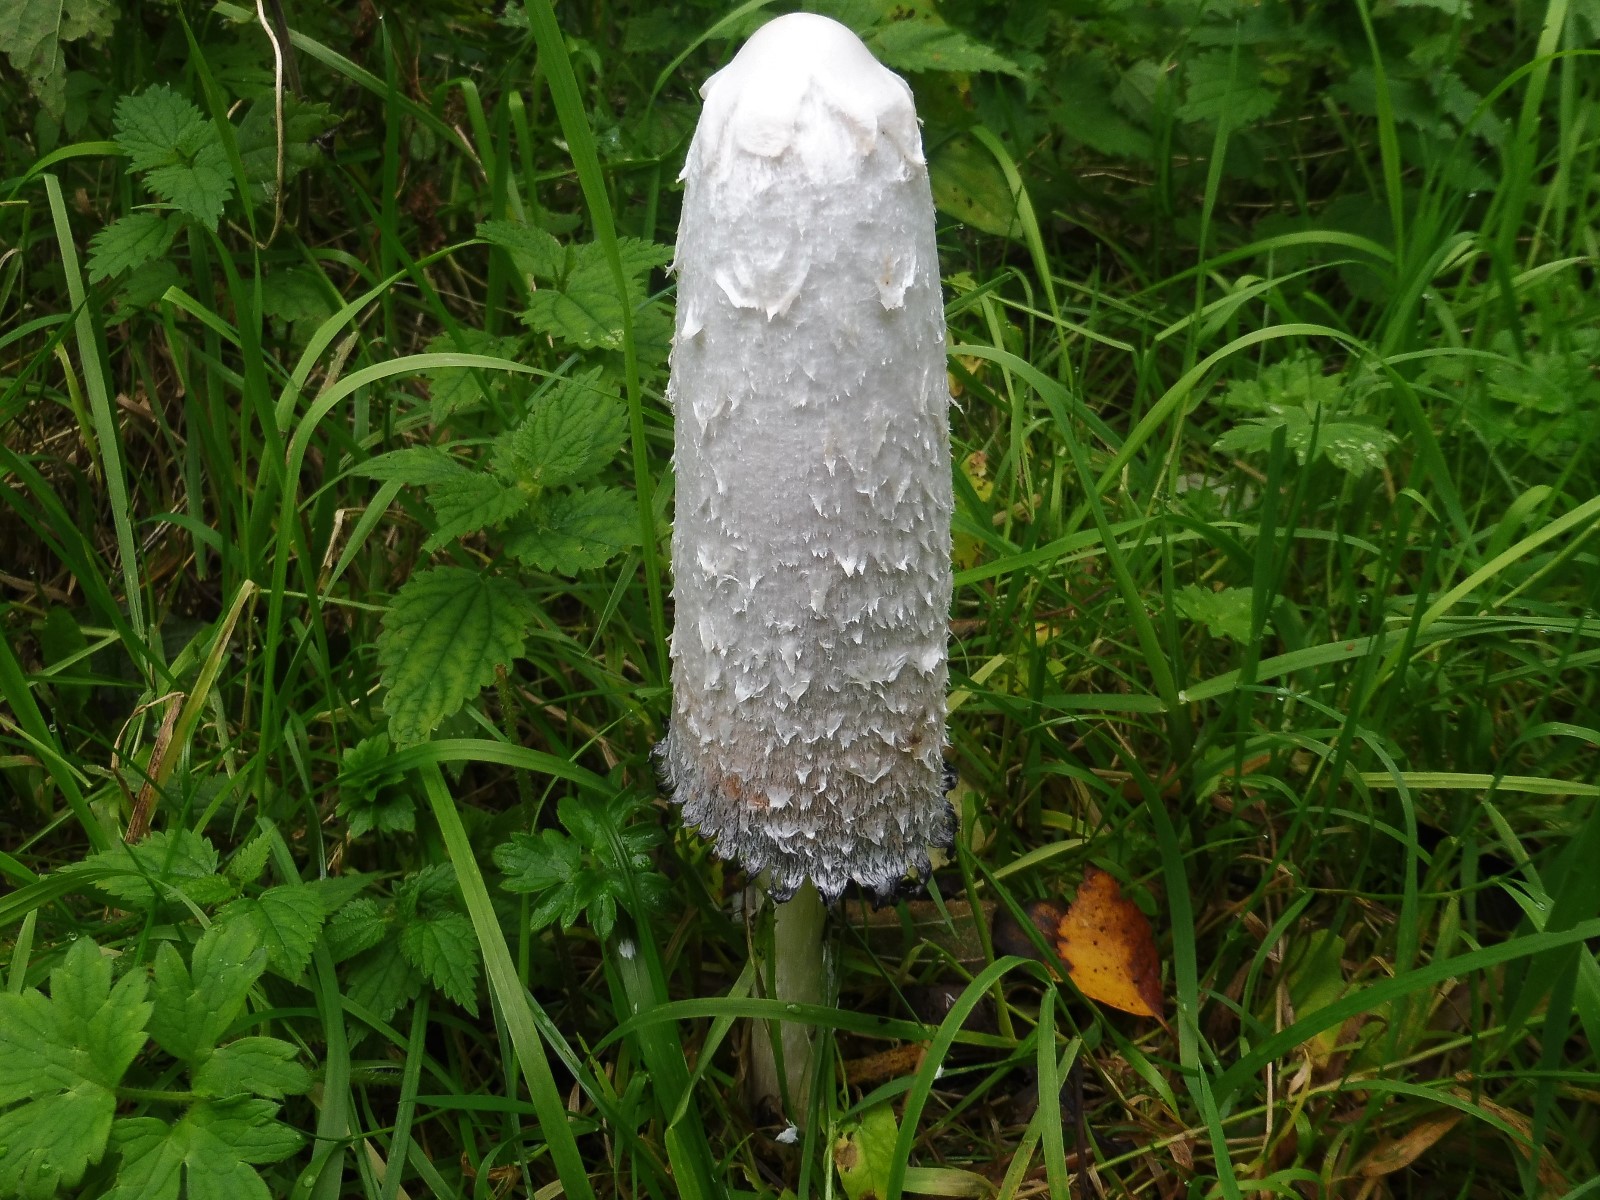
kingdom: Fungi
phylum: Basidiomycota
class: Agaricomycetes
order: Agaricales
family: Agaricaceae
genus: Coprinus
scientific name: Coprinus comatus
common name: stor parykhat
